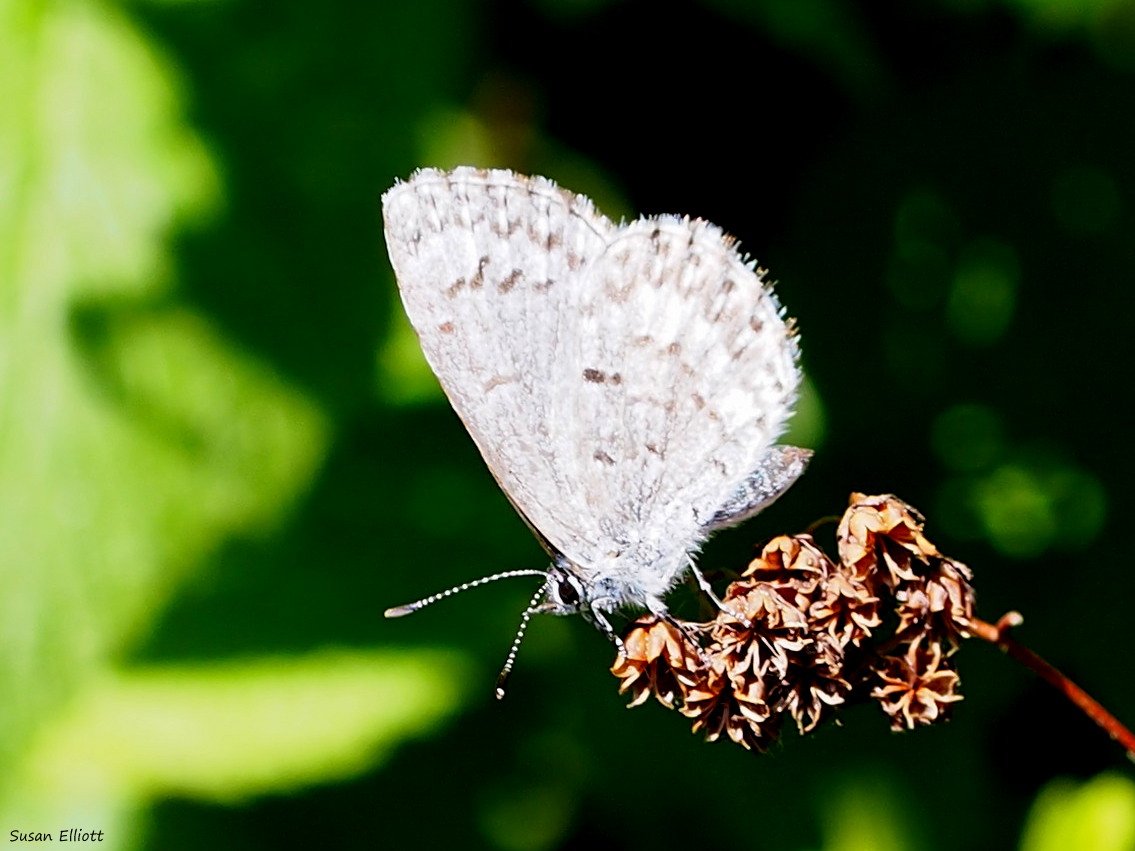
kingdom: Animalia
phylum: Arthropoda
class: Insecta
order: Lepidoptera
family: Lycaenidae
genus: Celastrina
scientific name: Celastrina
